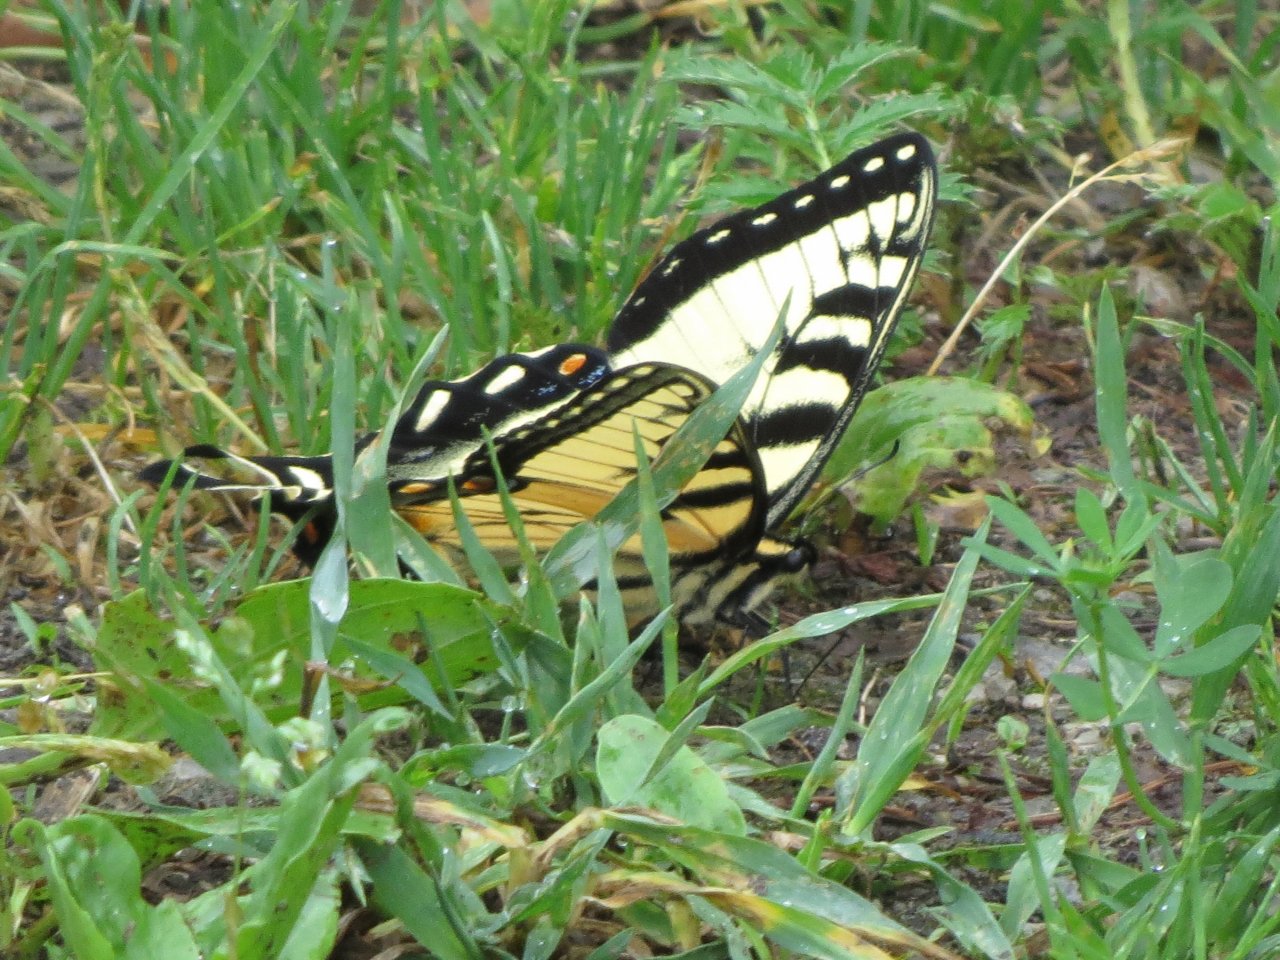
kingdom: Animalia
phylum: Arthropoda
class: Insecta
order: Lepidoptera
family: Papilionidae
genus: Pterourus
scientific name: Pterourus glaucus
